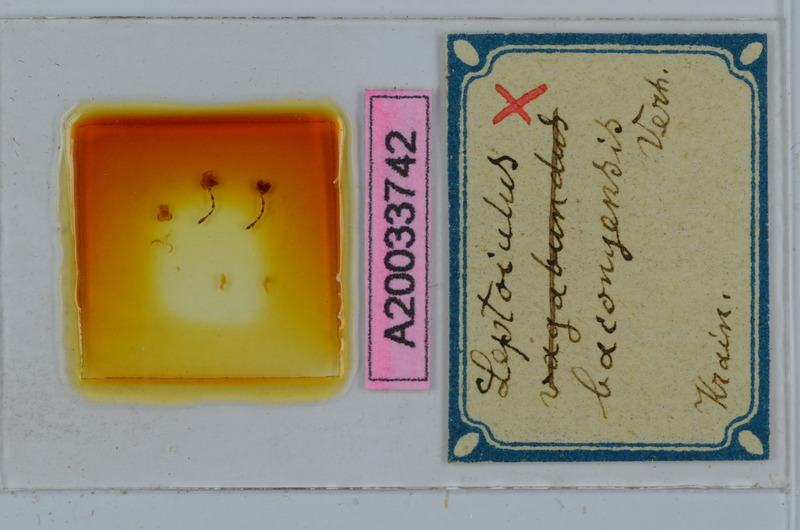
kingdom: Animalia
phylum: Arthropoda
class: Diplopoda
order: Julida
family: Julidae
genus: Leptoiulus
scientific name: Leptoiulus baconyensis
